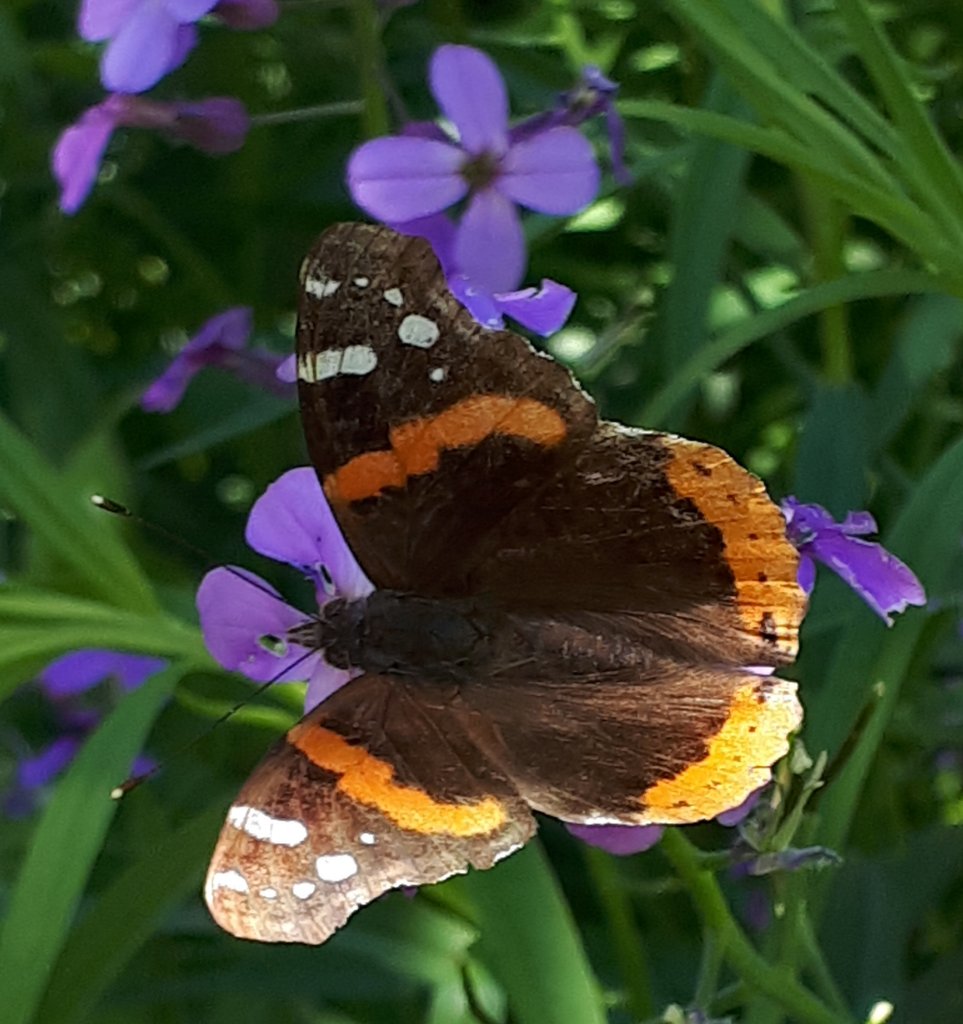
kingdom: Animalia
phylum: Arthropoda
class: Insecta
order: Lepidoptera
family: Nymphalidae
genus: Vanessa
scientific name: Vanessa atalanta
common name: Red Admiral
